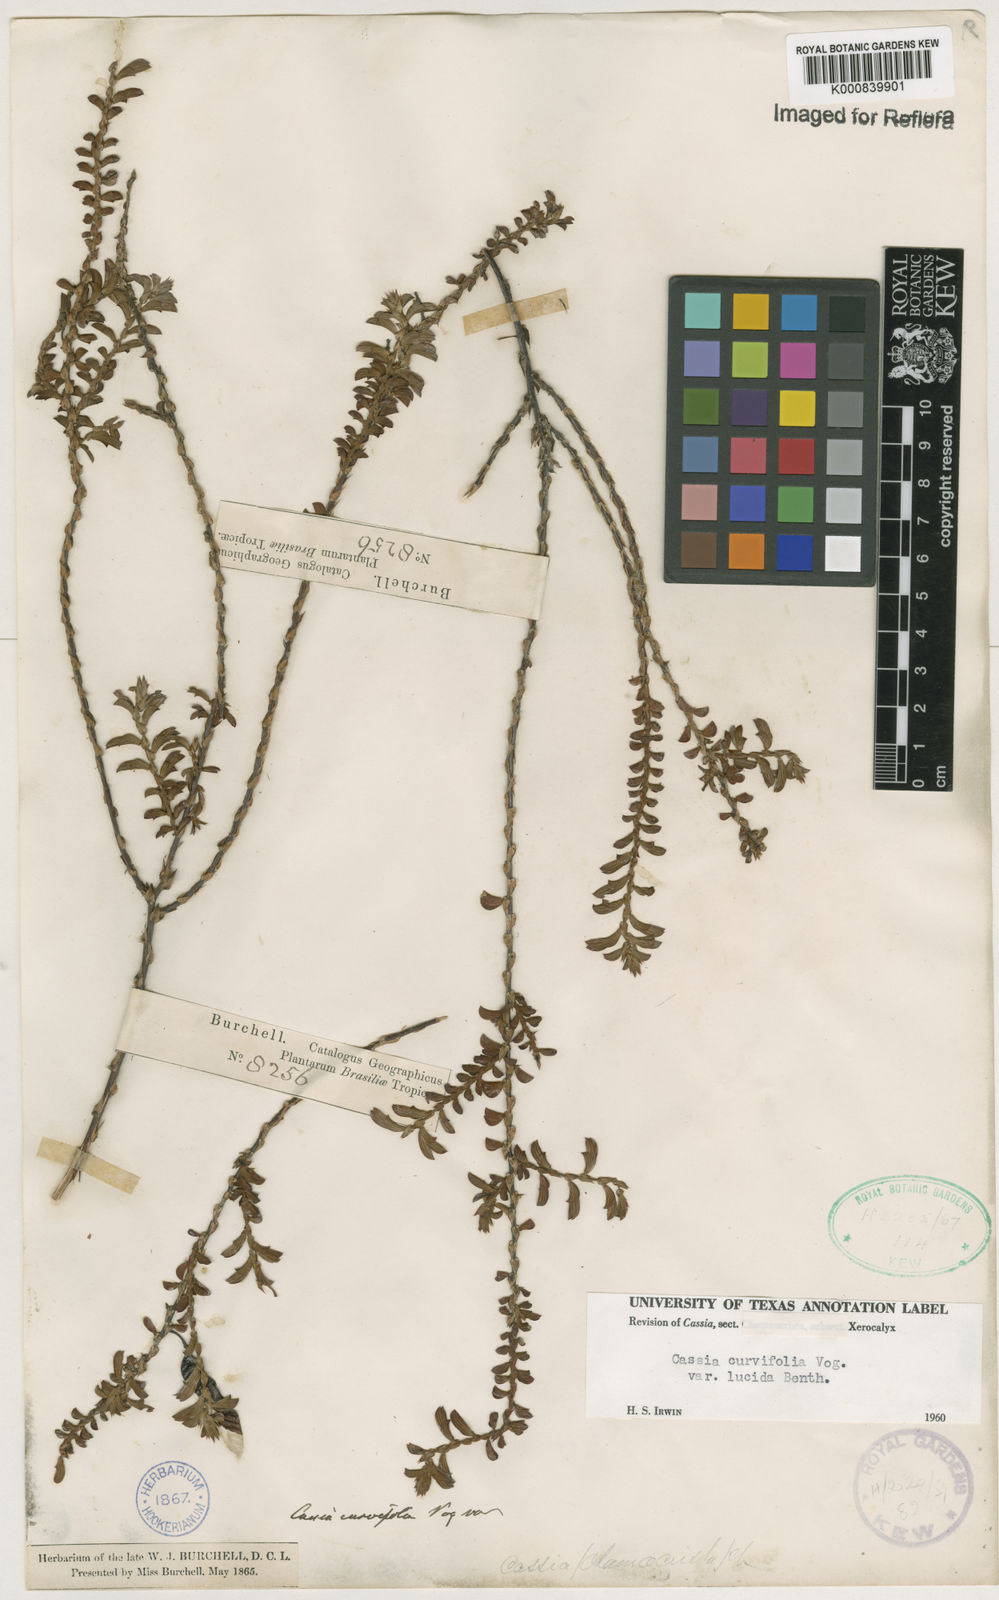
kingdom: Plantae
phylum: Tracheophyta
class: Magnoliopsida
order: Fabales
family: Fabaceae
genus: Chamaecrista
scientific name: Chamaecrista ramosa
